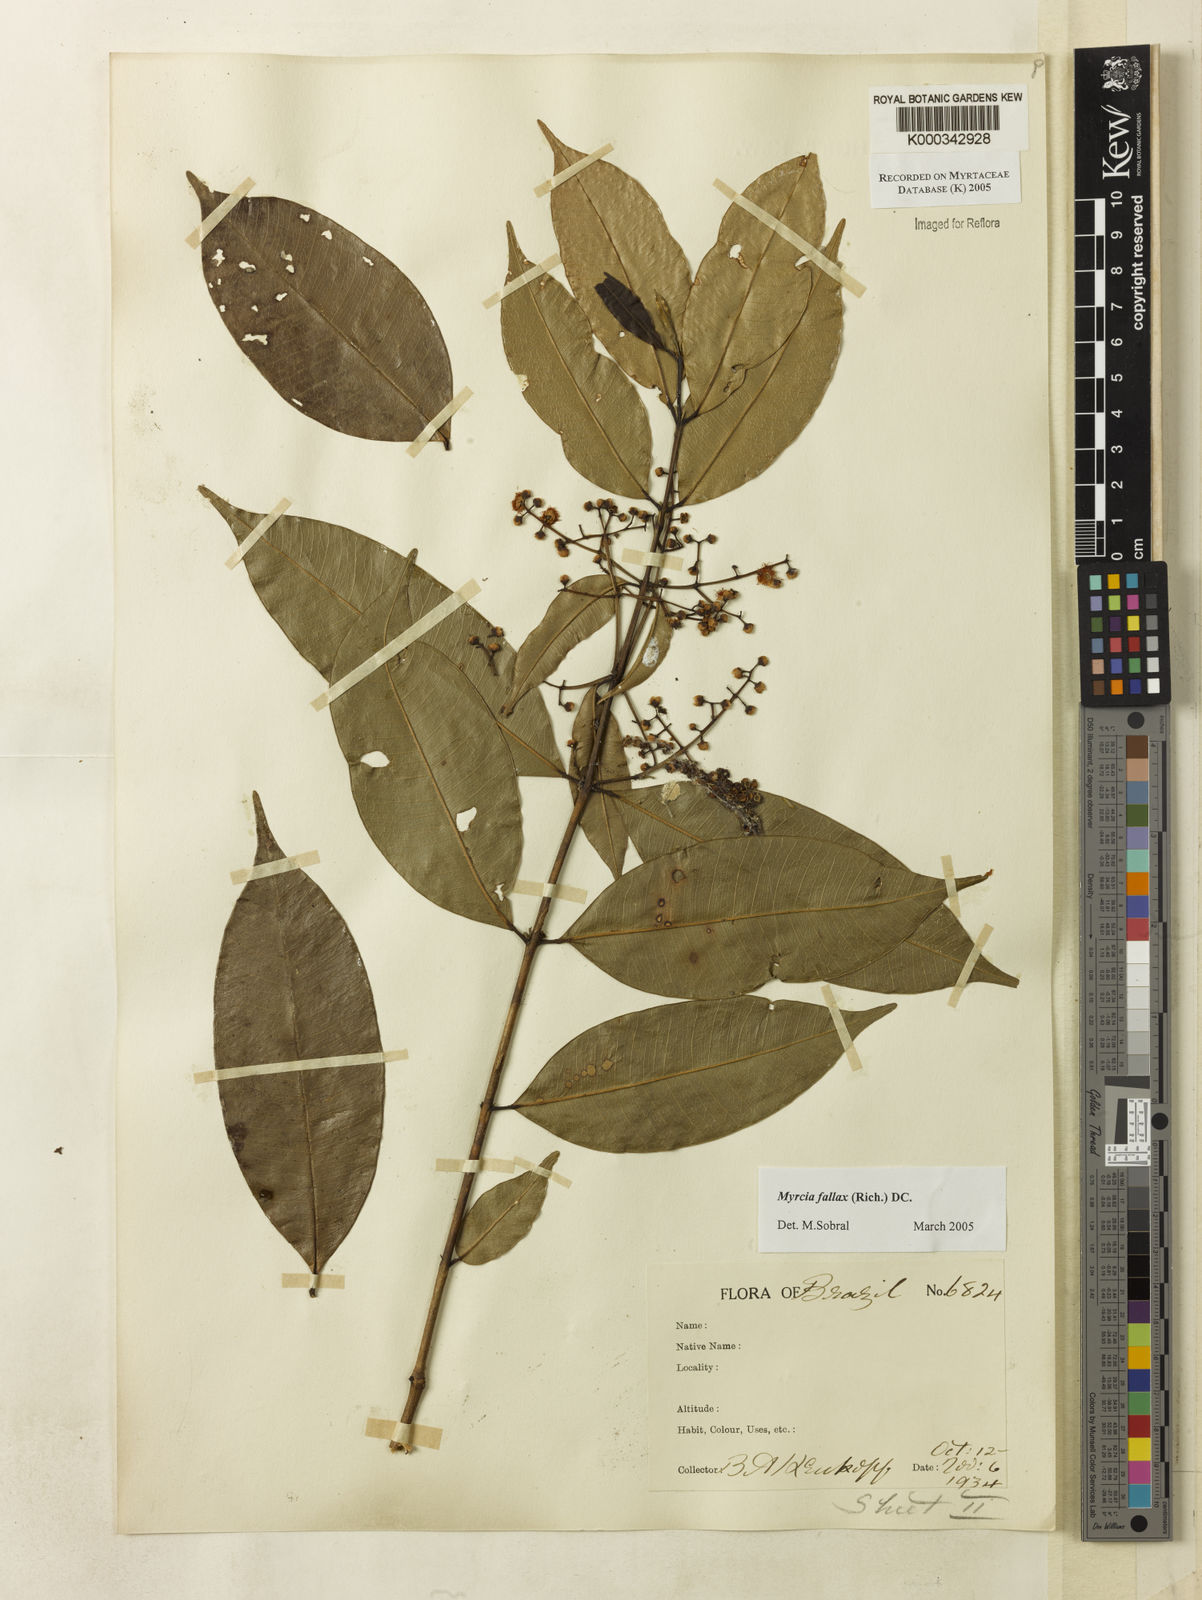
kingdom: Plantae
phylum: Tracheophyta
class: Magnoliopsida
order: Myrtales
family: Myrtaceae
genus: Myrcia
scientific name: Myrcia splendens
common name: Surinam cherry
